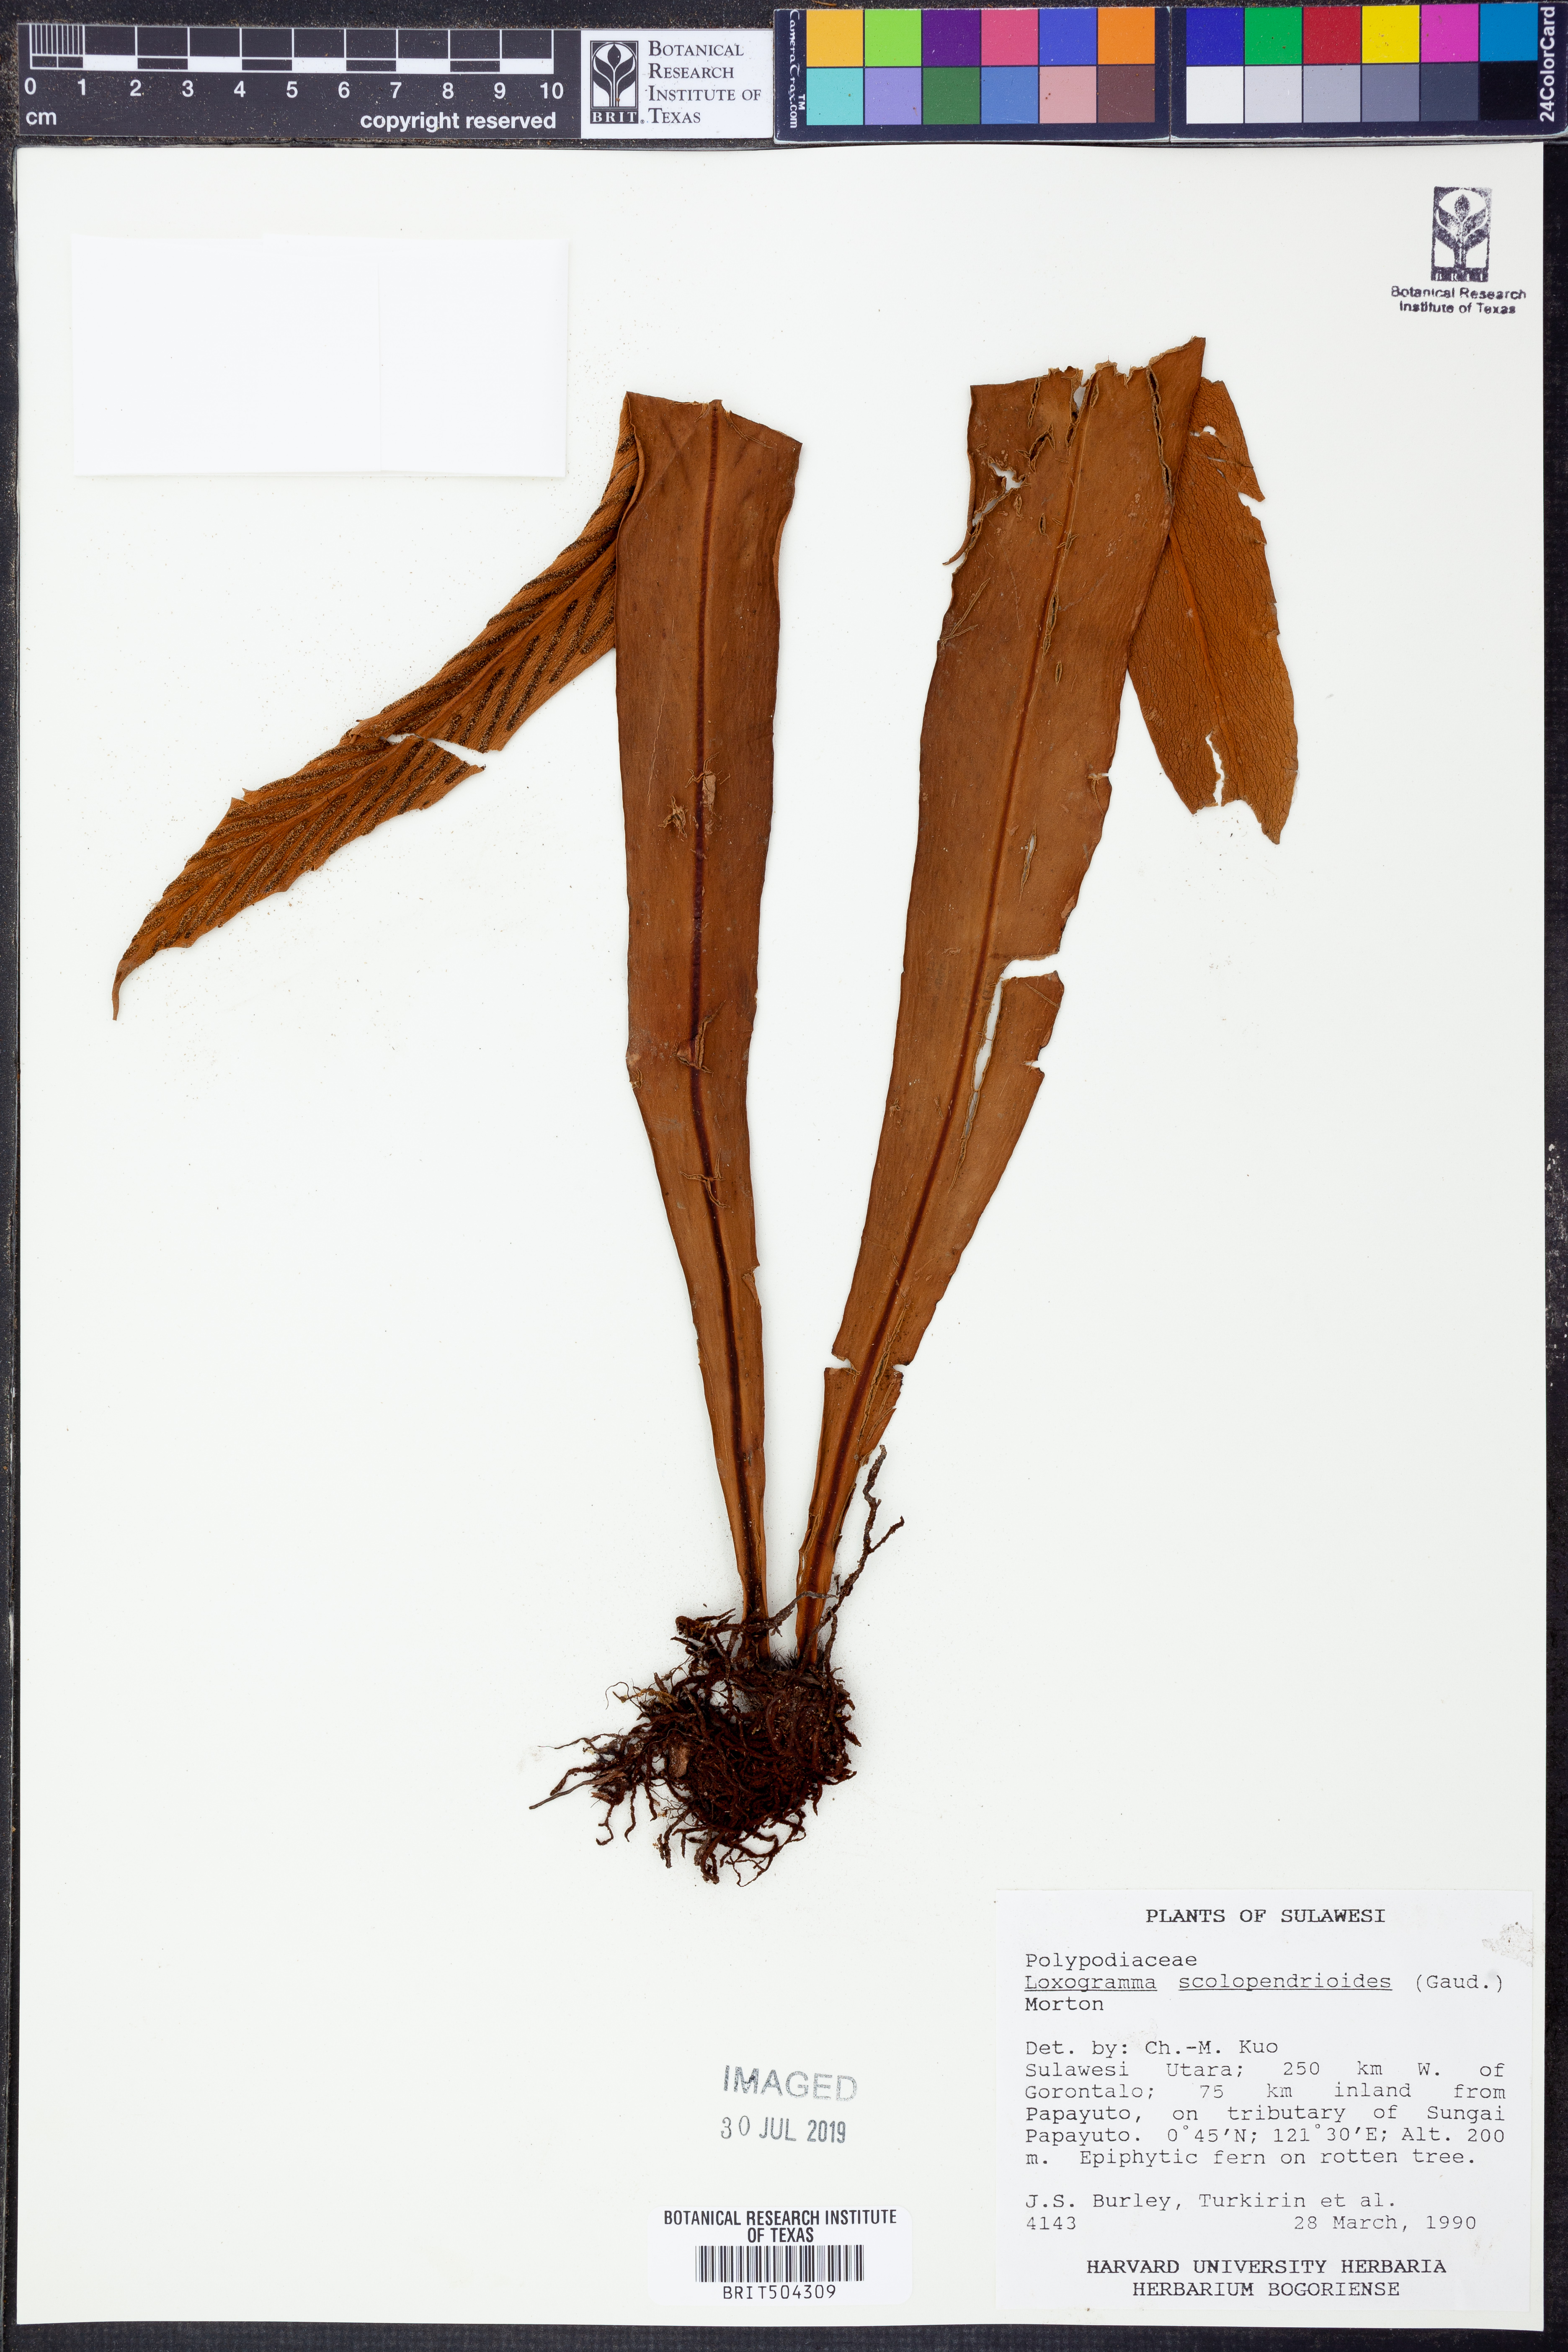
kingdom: Plantae
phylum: Tracheophyta
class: Polypodiopsida
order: Polypodiales
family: Polypodiaceae
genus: Loxogramme
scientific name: Loxogramme scolopendrioides
